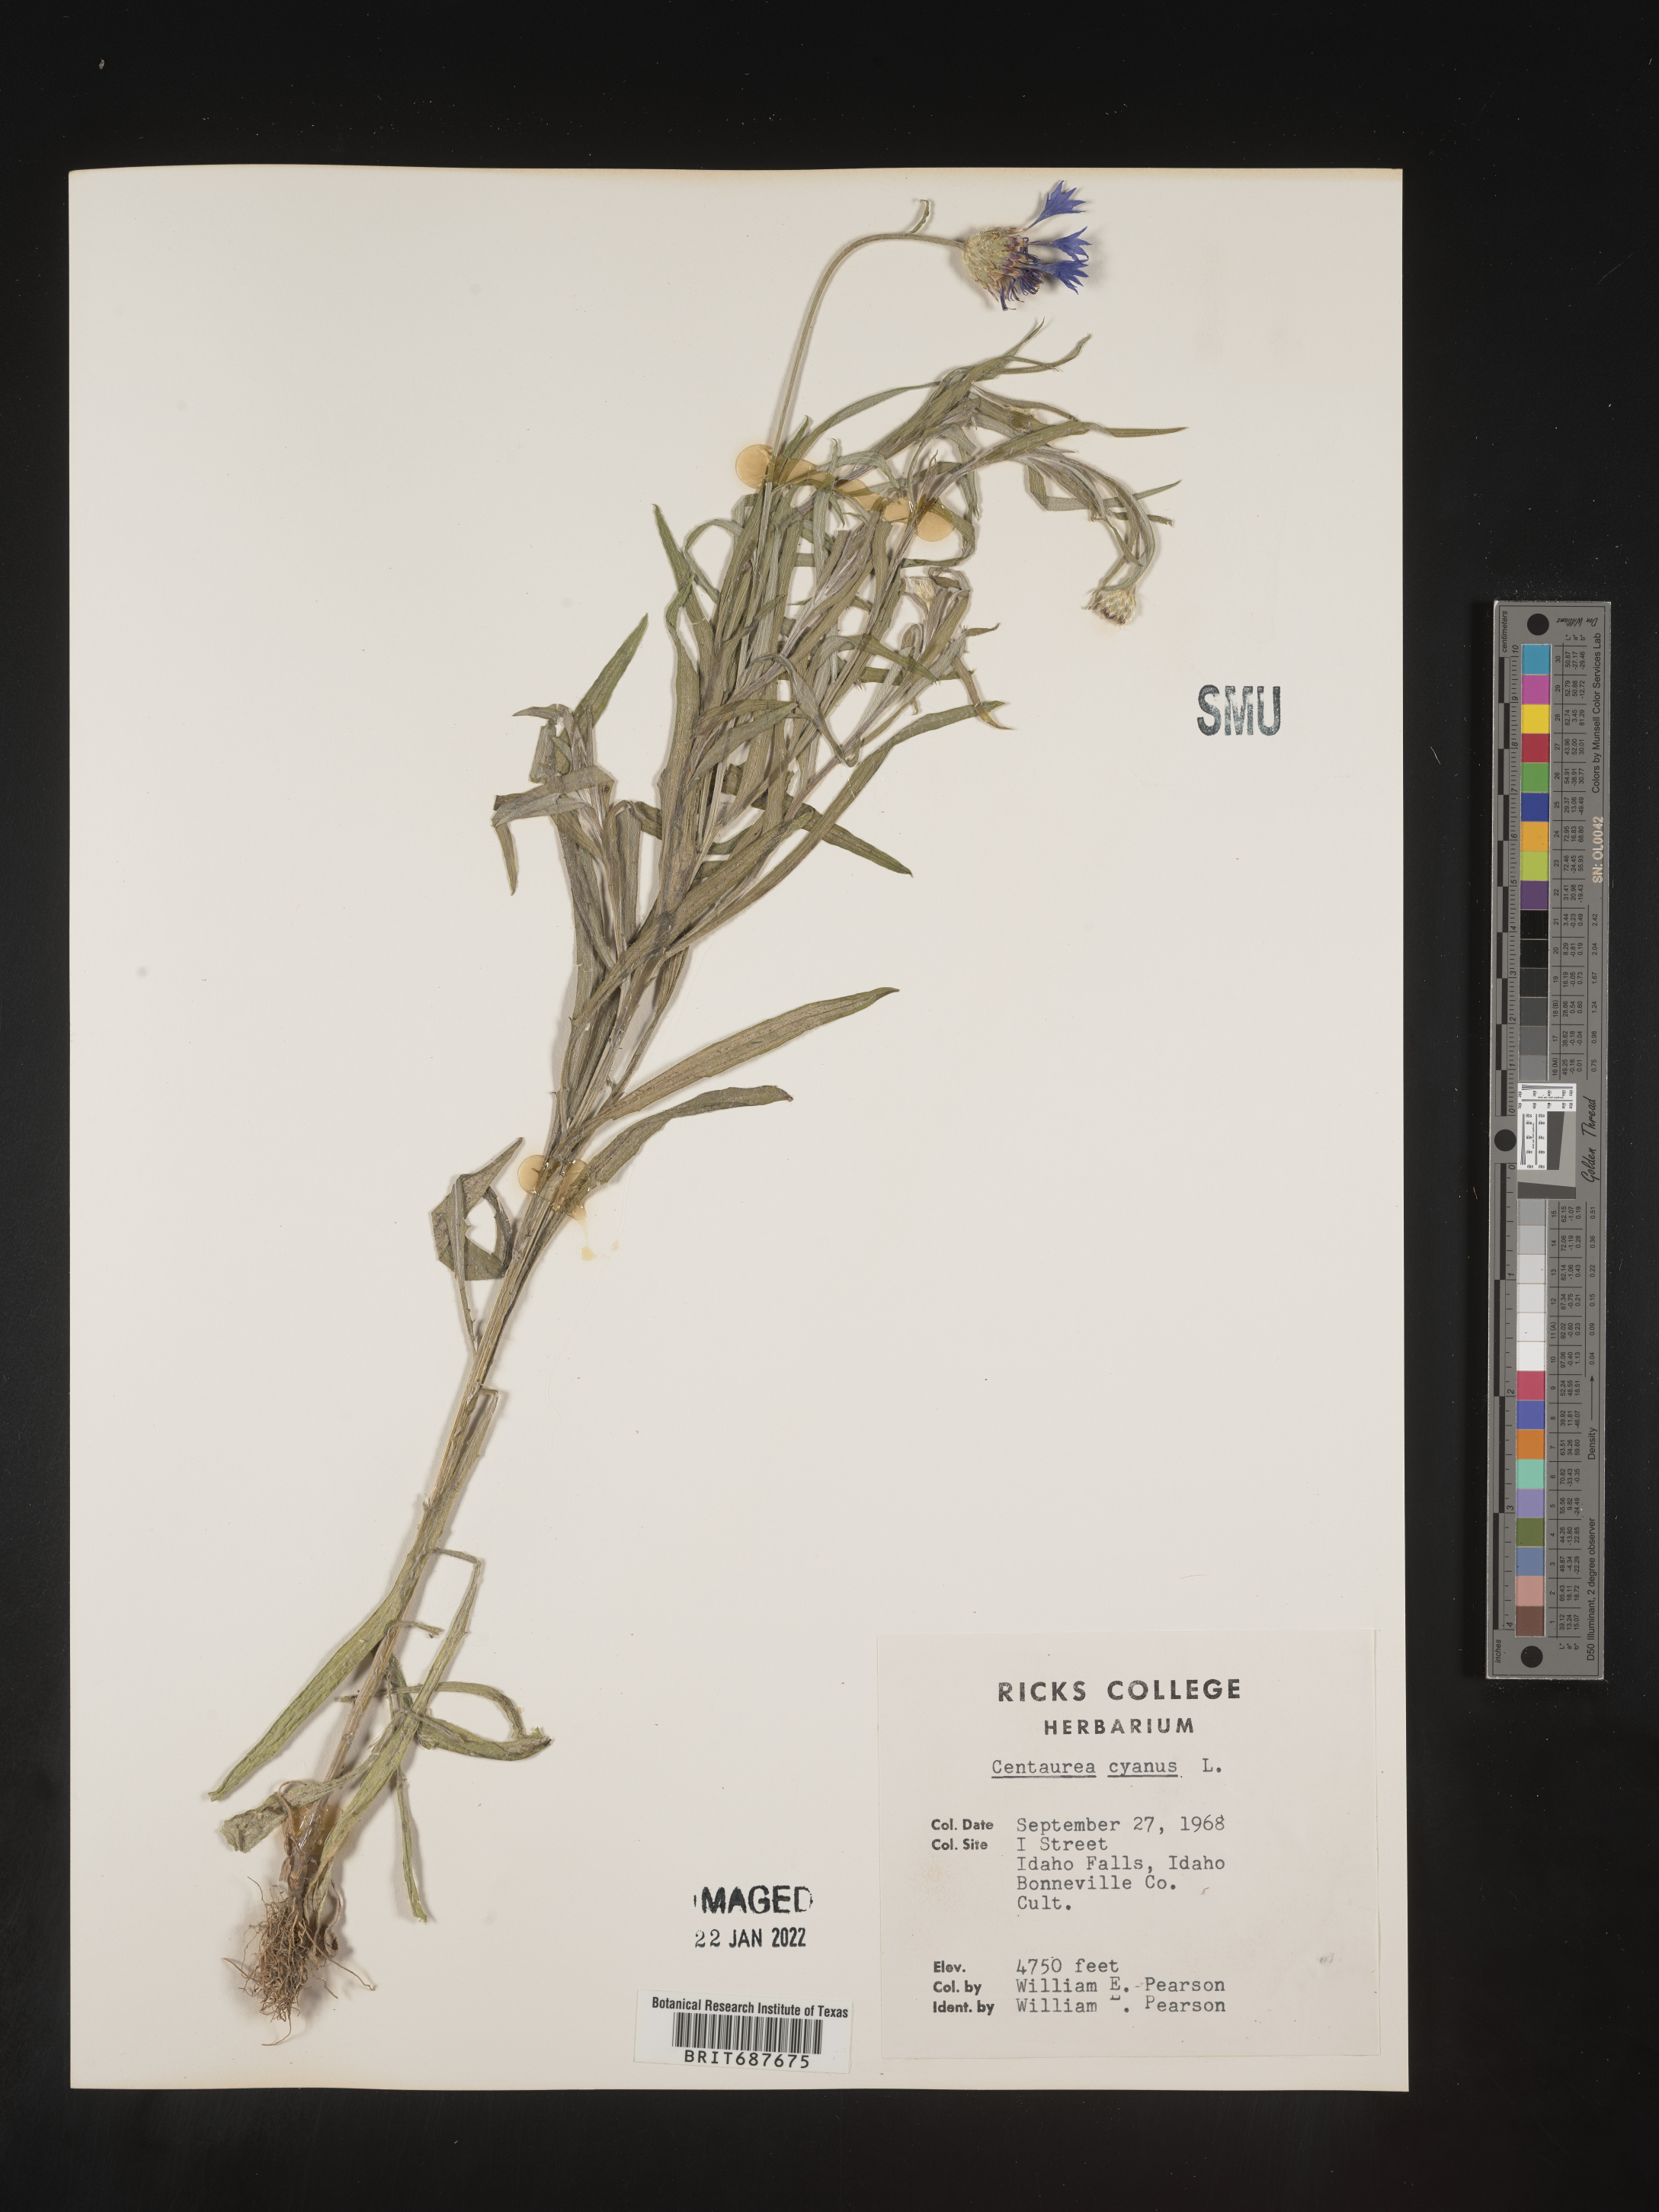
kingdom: Plantae
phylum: Tracheophyta
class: Magnoliopsida
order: Asterales
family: Asteraceae
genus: Centaurea
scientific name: Centaurea
